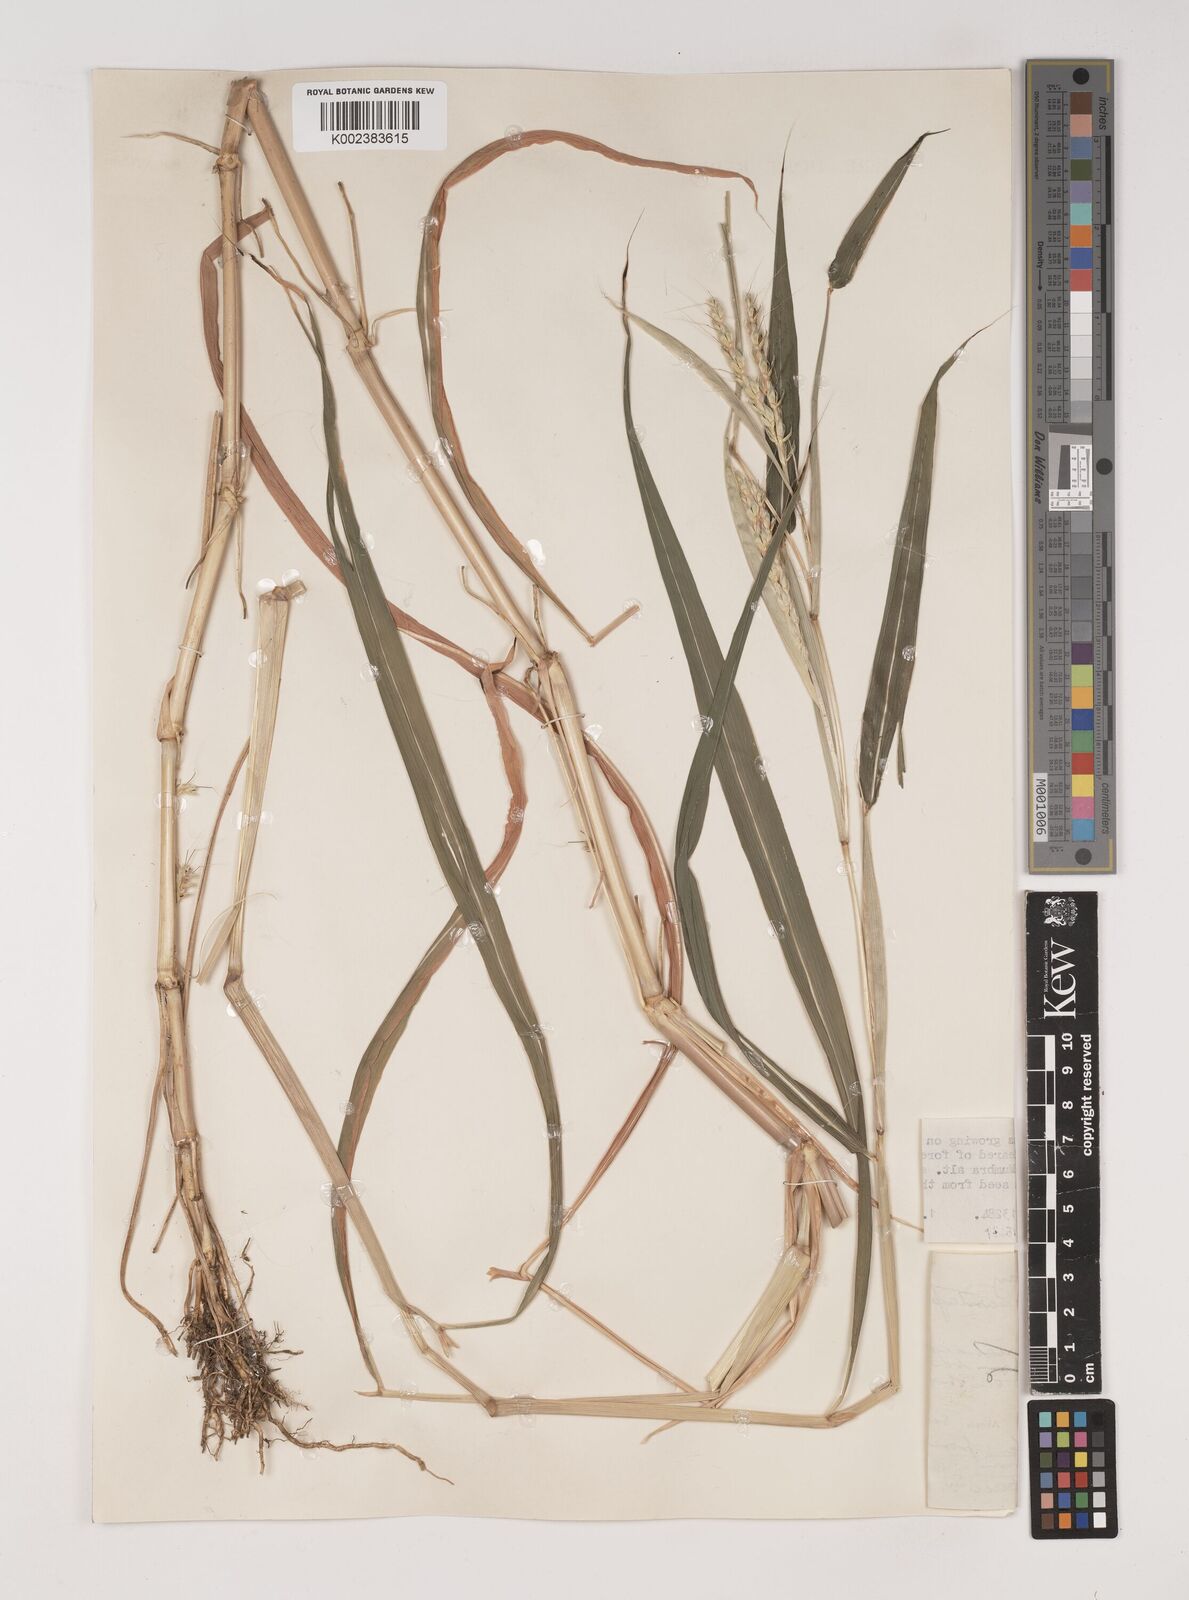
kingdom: Plantae
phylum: Tracheophyta
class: Liliopsida
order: Poales
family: Poaceae
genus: Ischaemum
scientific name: Ischaemum santapaui
